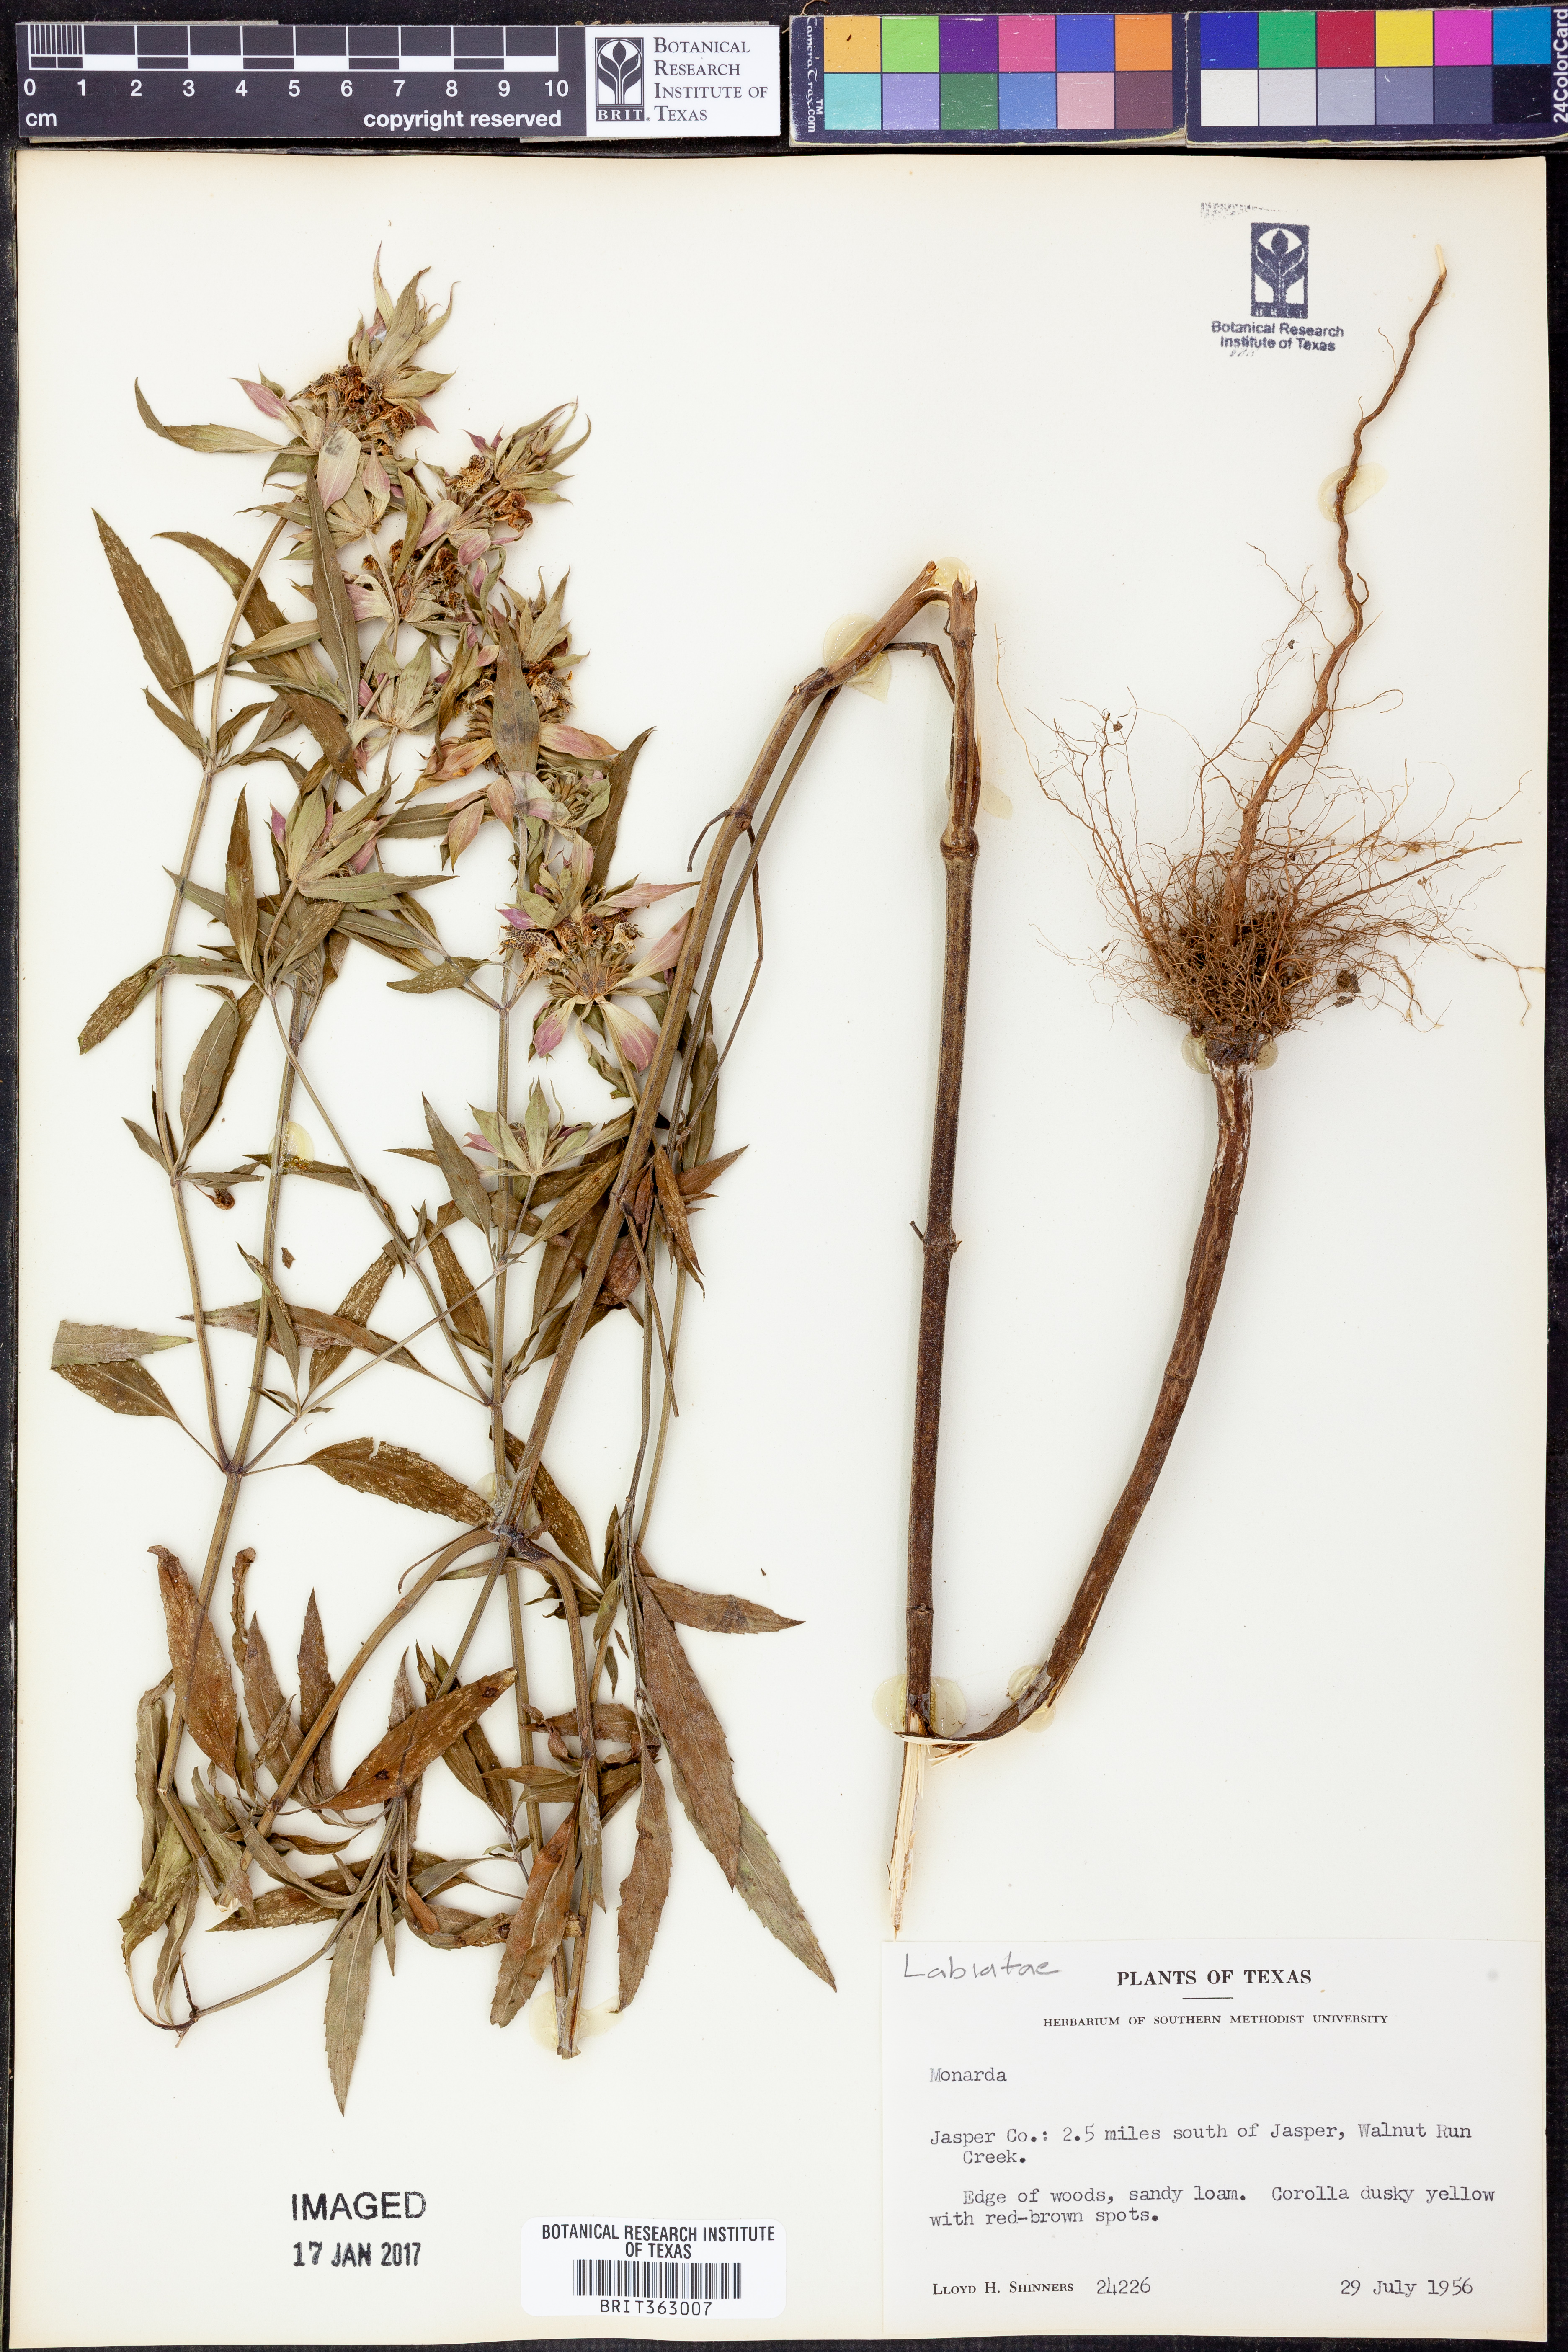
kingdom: Plantae
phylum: Tracheophyta
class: Magnoliopsida
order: Lamiales
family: Lamiaceae
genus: Monarda
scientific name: Monarda punctata
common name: Dotted monarda
